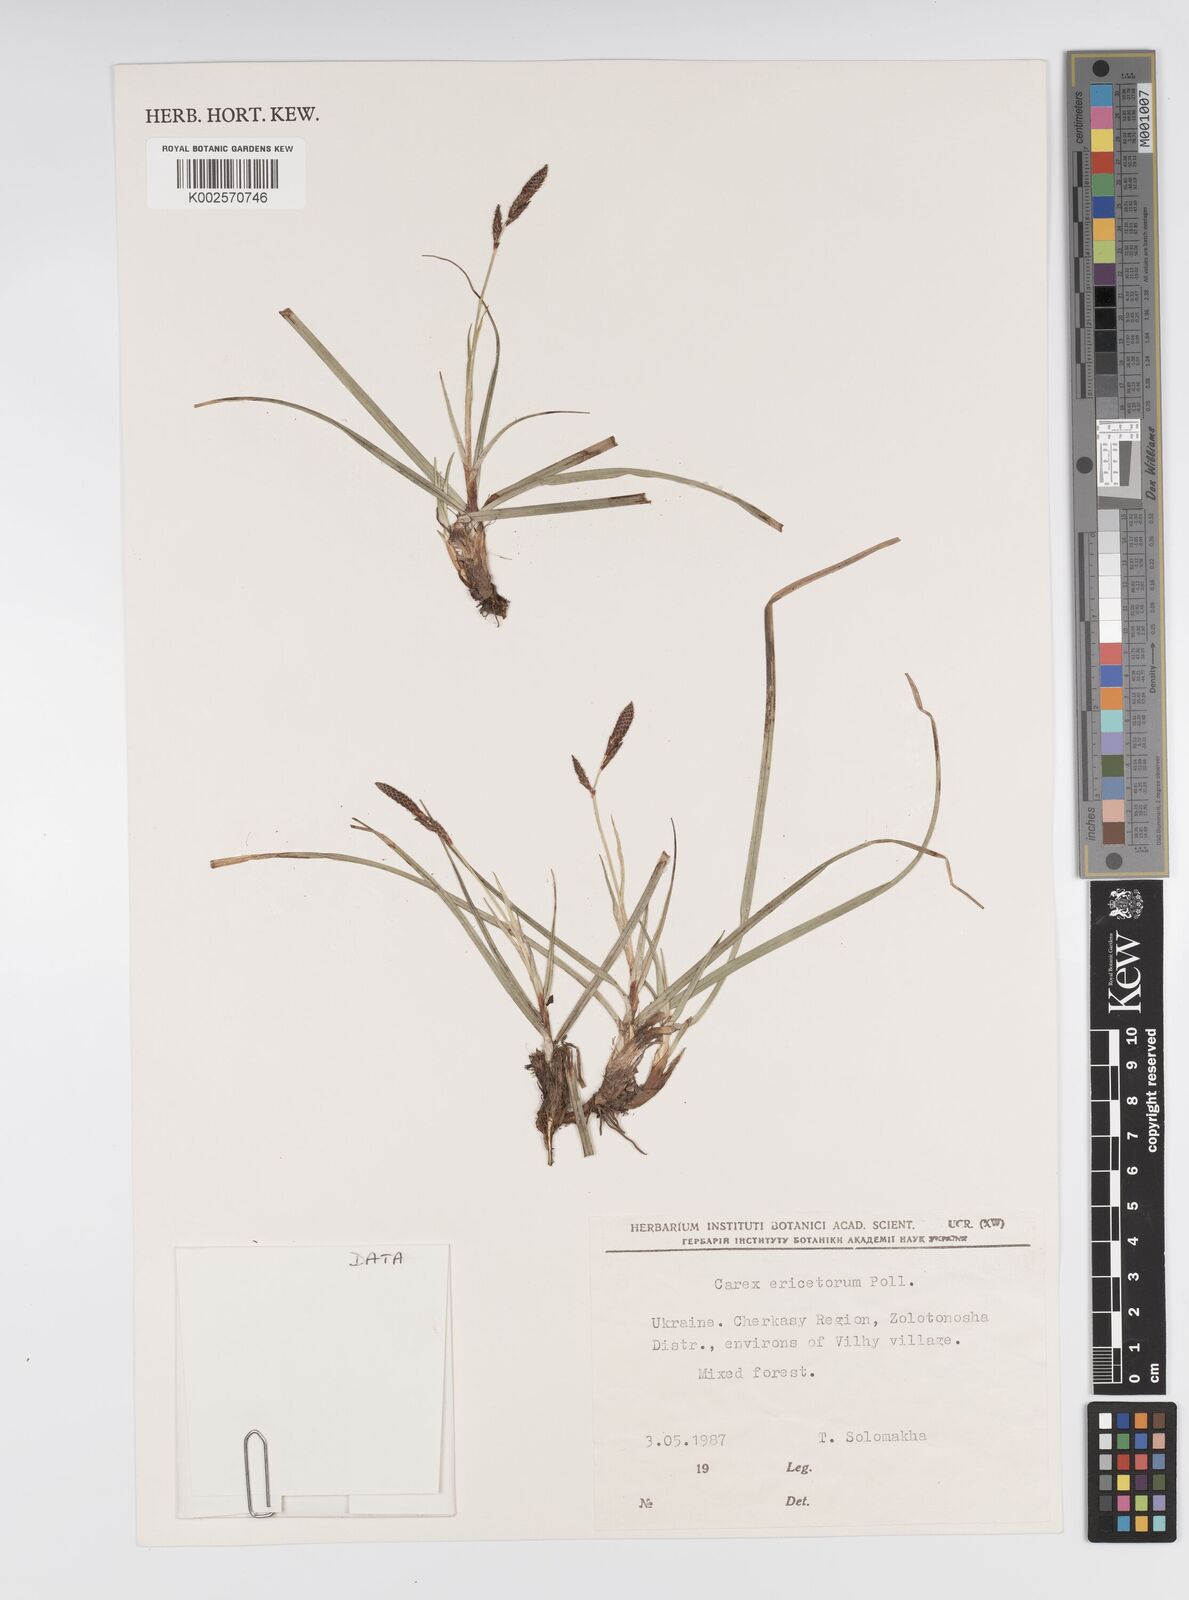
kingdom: Plantae
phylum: Tracheophyta
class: Liliopsida
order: Poales
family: Cyperaceae
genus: Carex
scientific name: Carex ericetorum
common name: Rare spring-sedge
